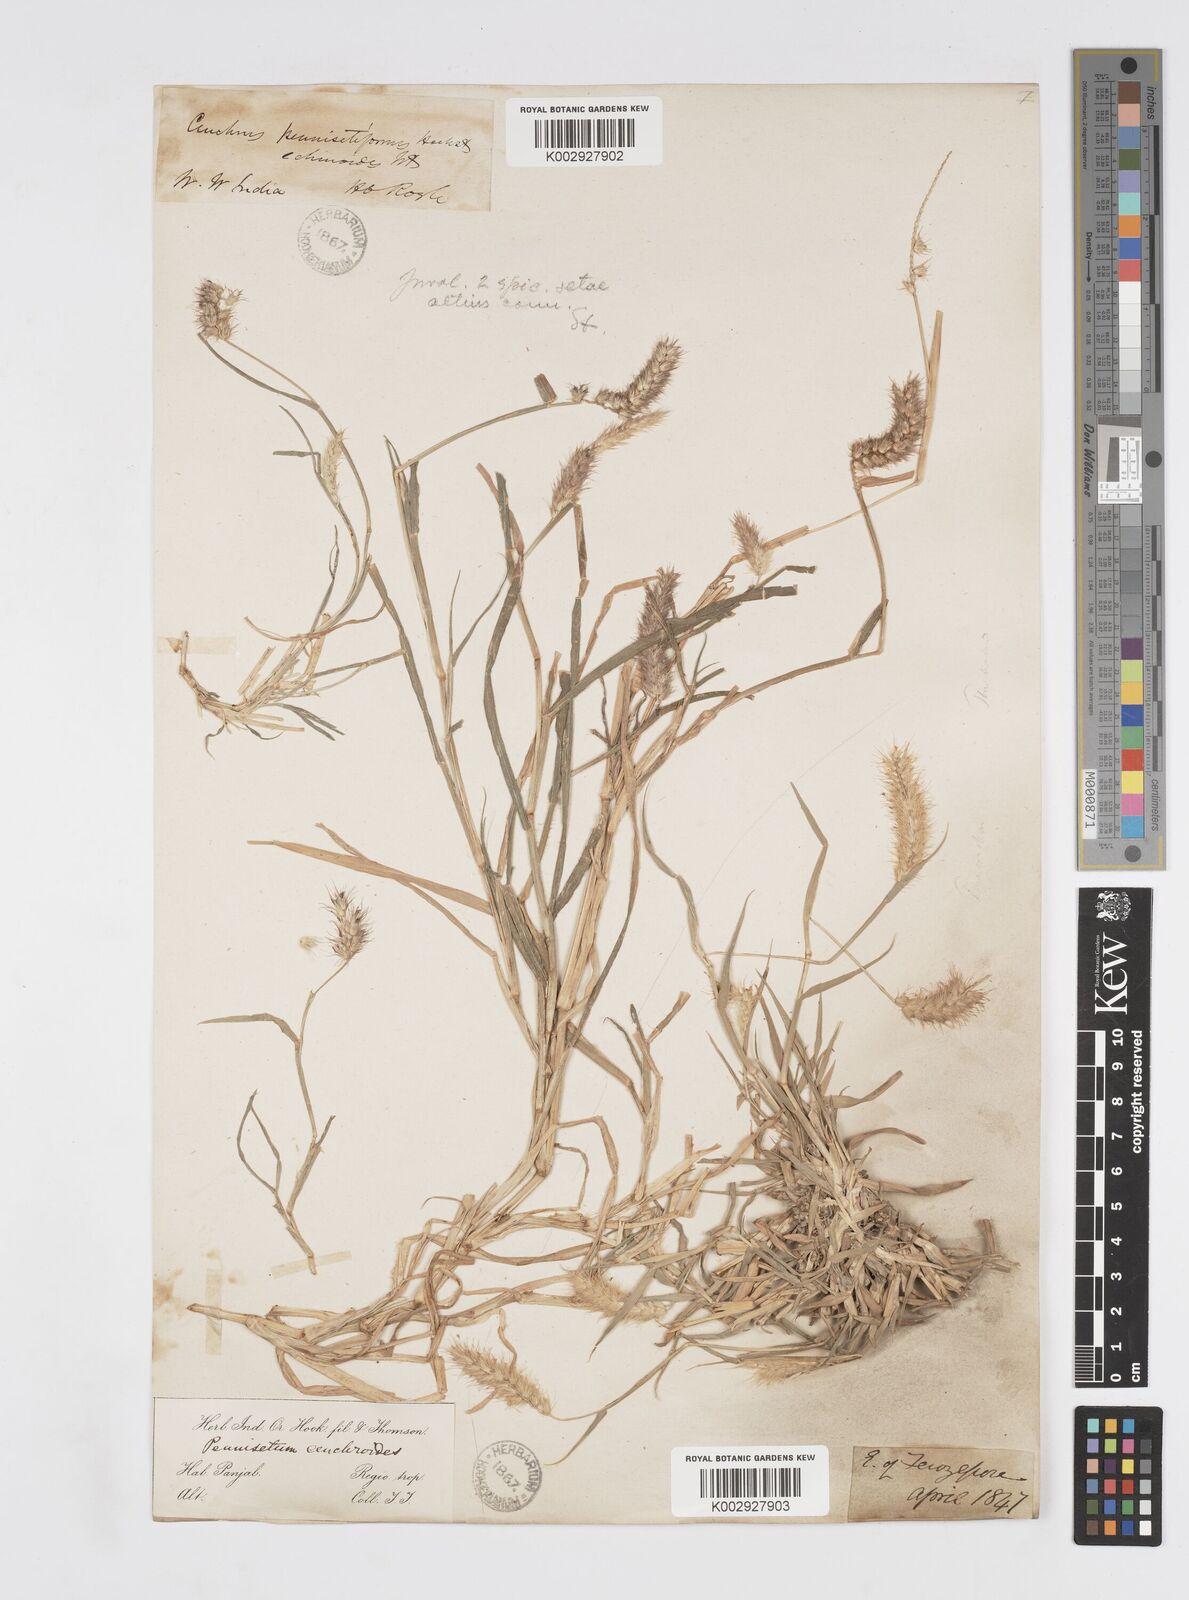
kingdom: Plantae
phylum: Tracheophyta
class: Liliopsida
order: Poales
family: Poaceae
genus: Cenchrus
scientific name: Cenchrus pennisetiformis
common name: Cloncurry
